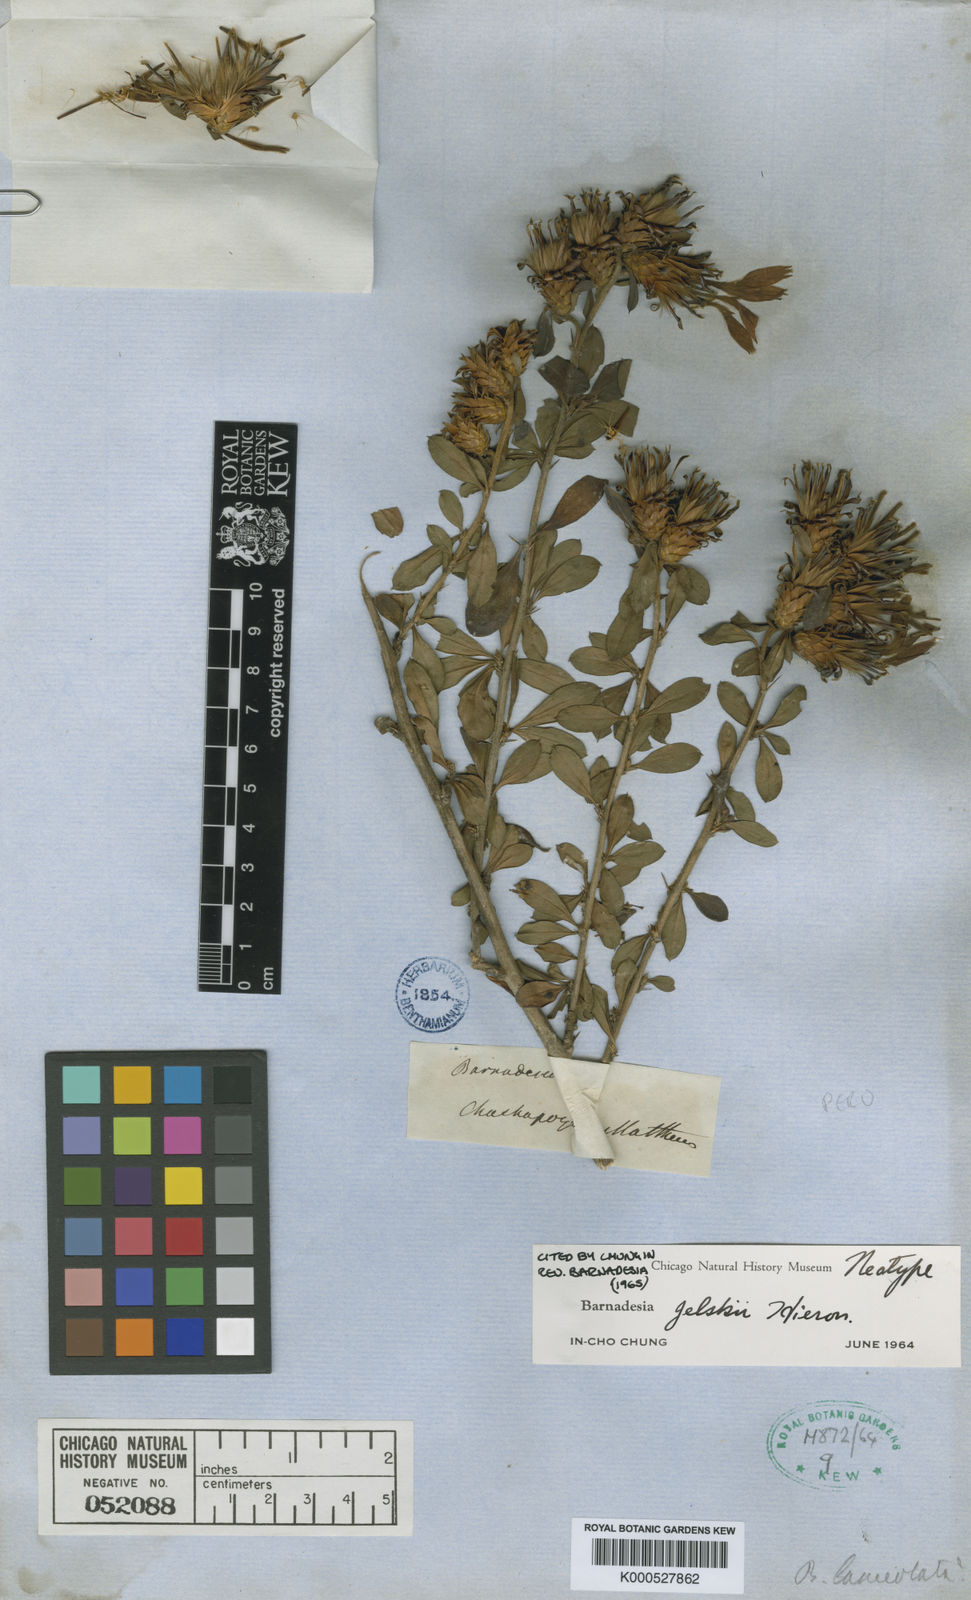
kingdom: Plantae
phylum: Tracheophyta
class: Magnoliopsida
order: Asterales
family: Asteraceae
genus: Barnadesia
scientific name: Barnadesia jelskii
